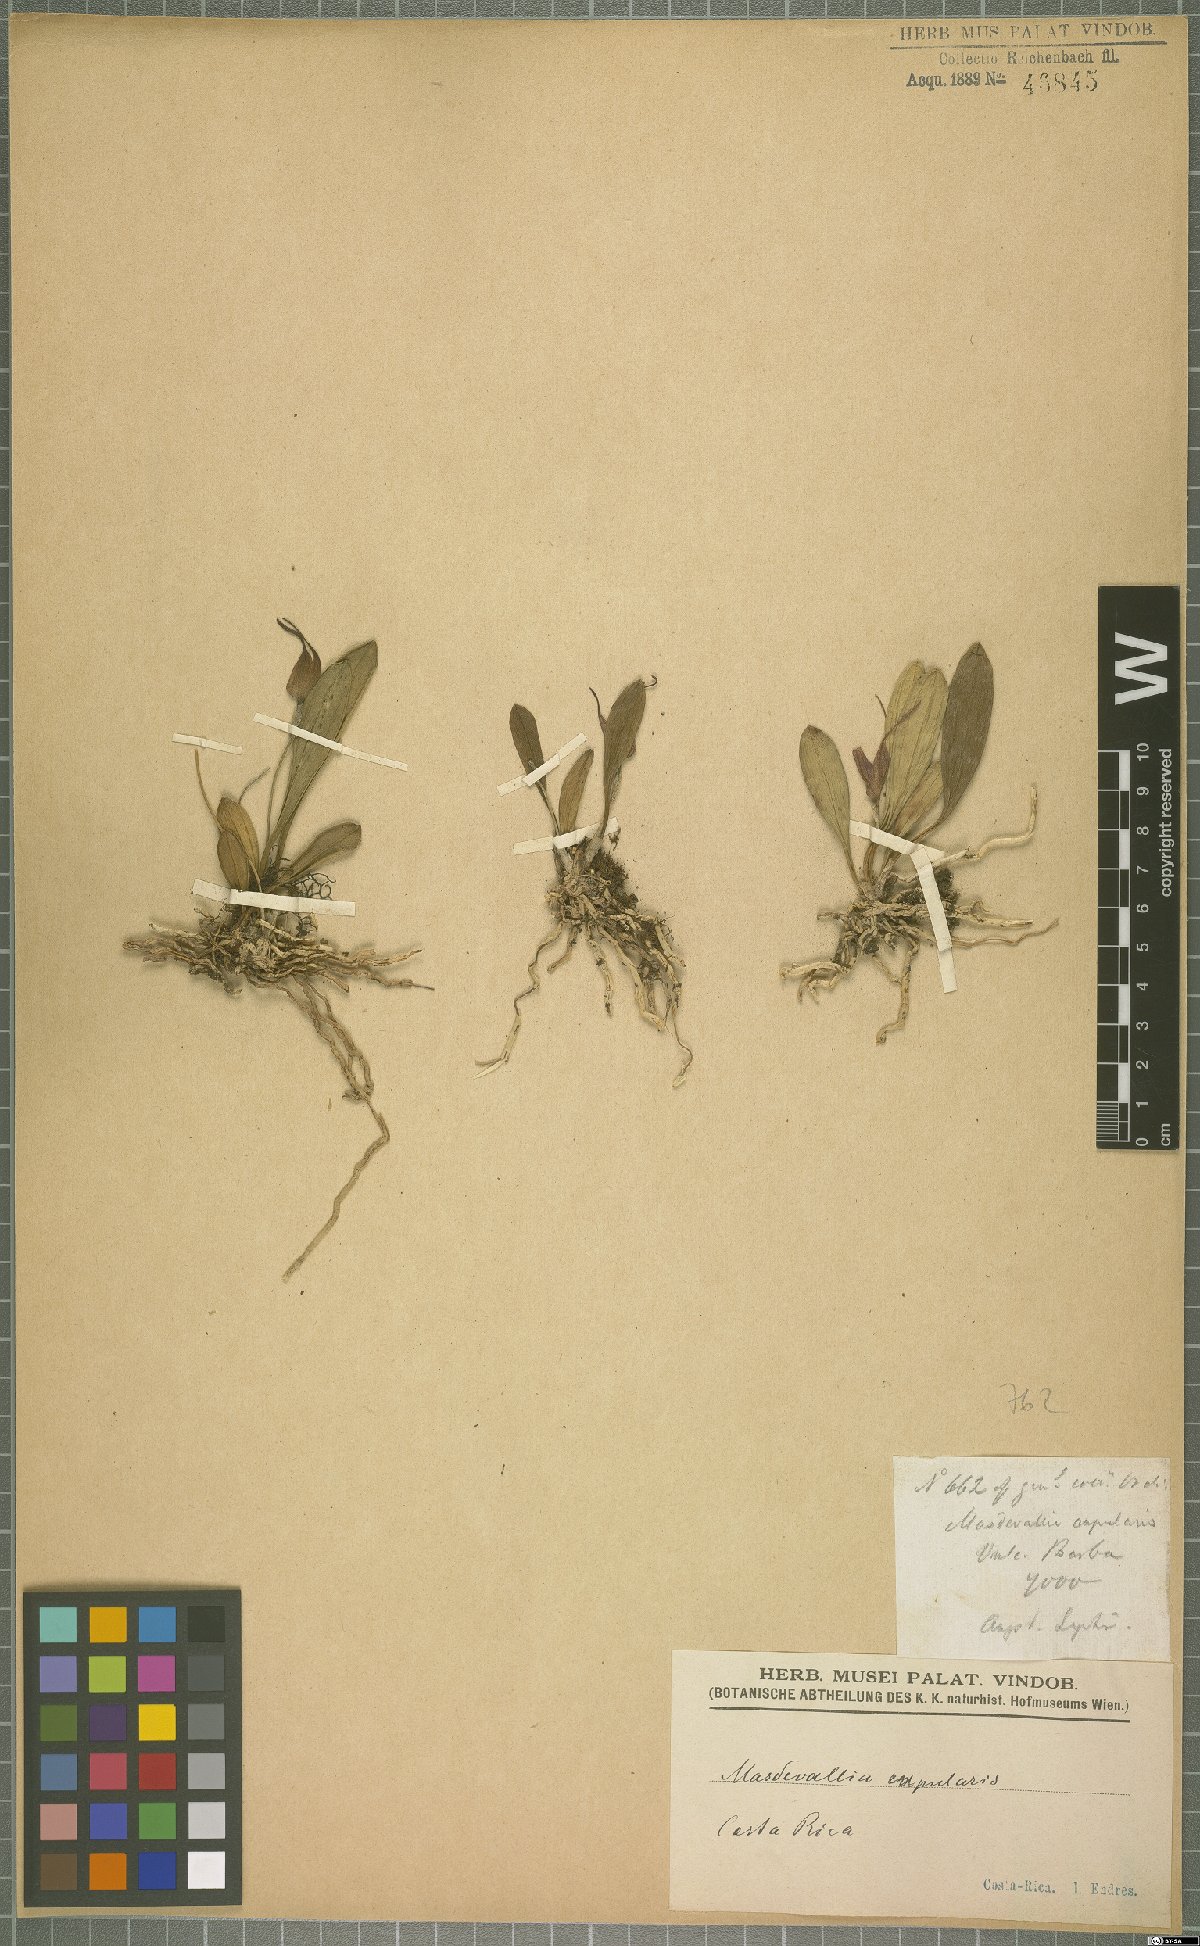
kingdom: Plantae
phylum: Tracheophyta
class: Liliopsida
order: Asparagales
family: Orchidaceae
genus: Masdevallia
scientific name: Masdevallia cupularis
